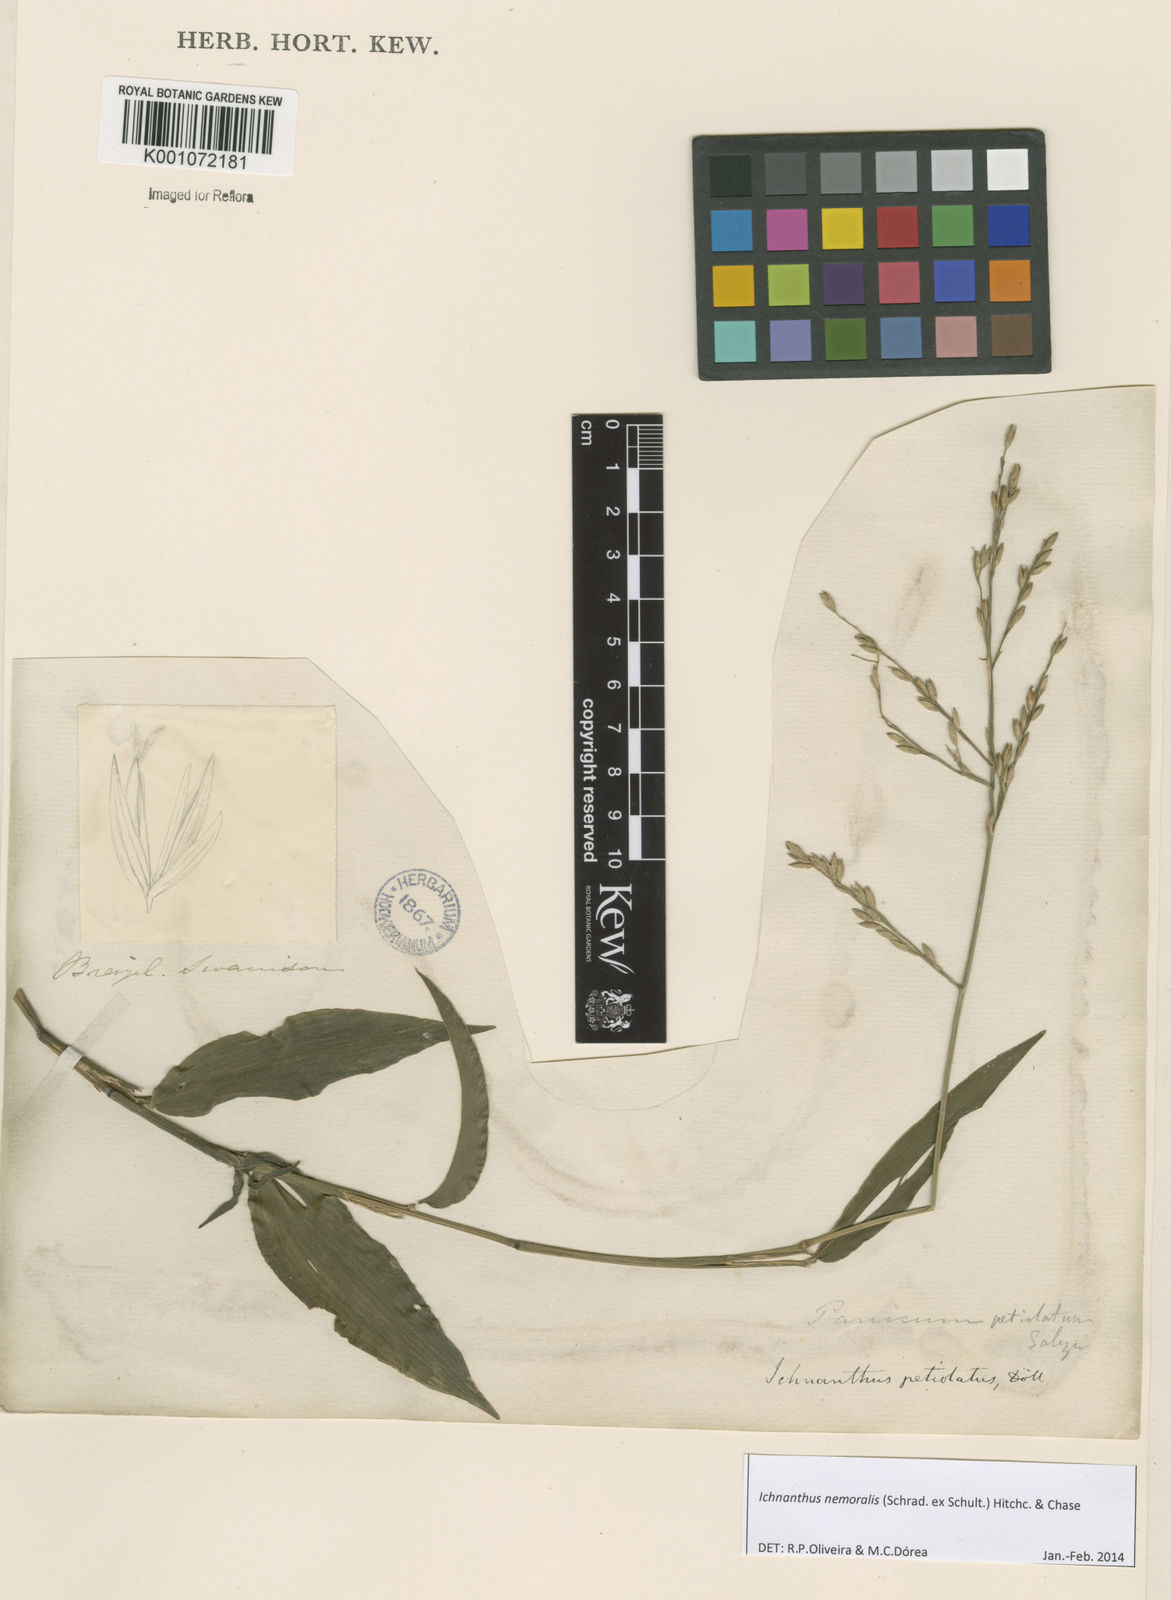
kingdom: Plantae
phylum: Tracheophyta
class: Liliopsida
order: Poales
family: Poaceae
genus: Ichnanthus
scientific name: Ichnanthus nemoralis
